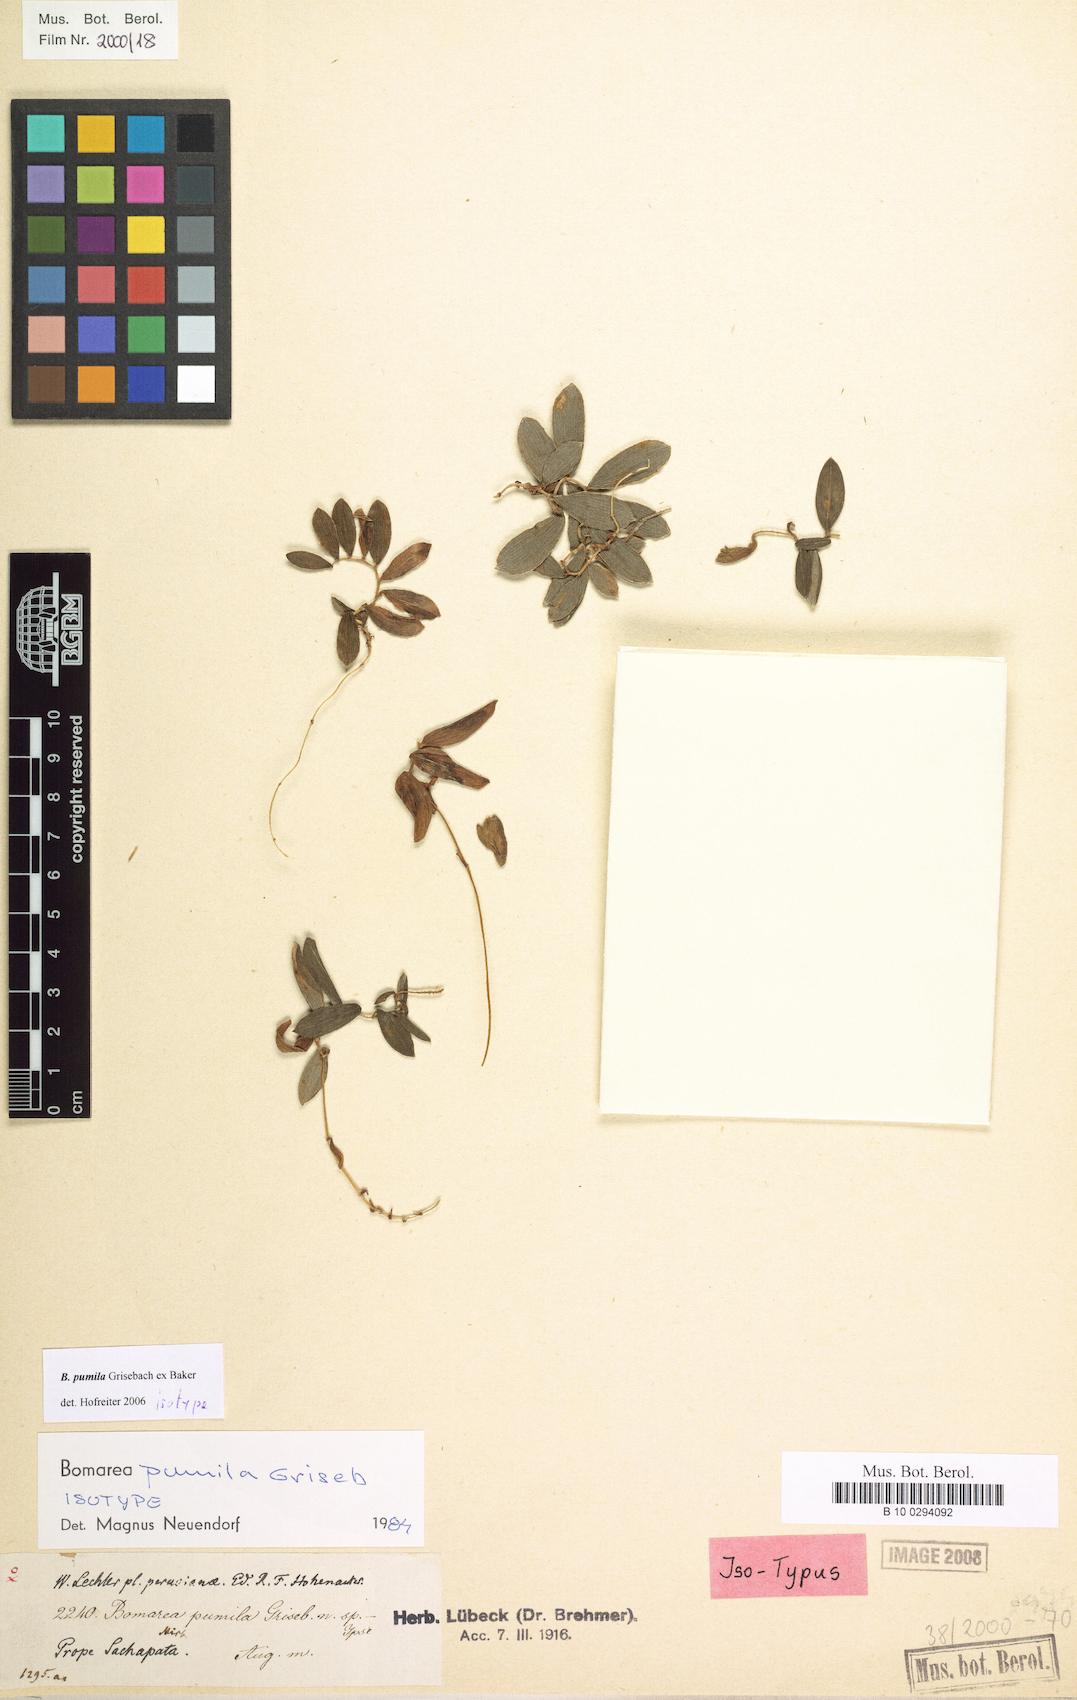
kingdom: Plantae
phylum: Tracheophyta
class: Liliopsida
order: Liliales
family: Alstroemeriaceae
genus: Bomarea
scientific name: Bomarea pumila
